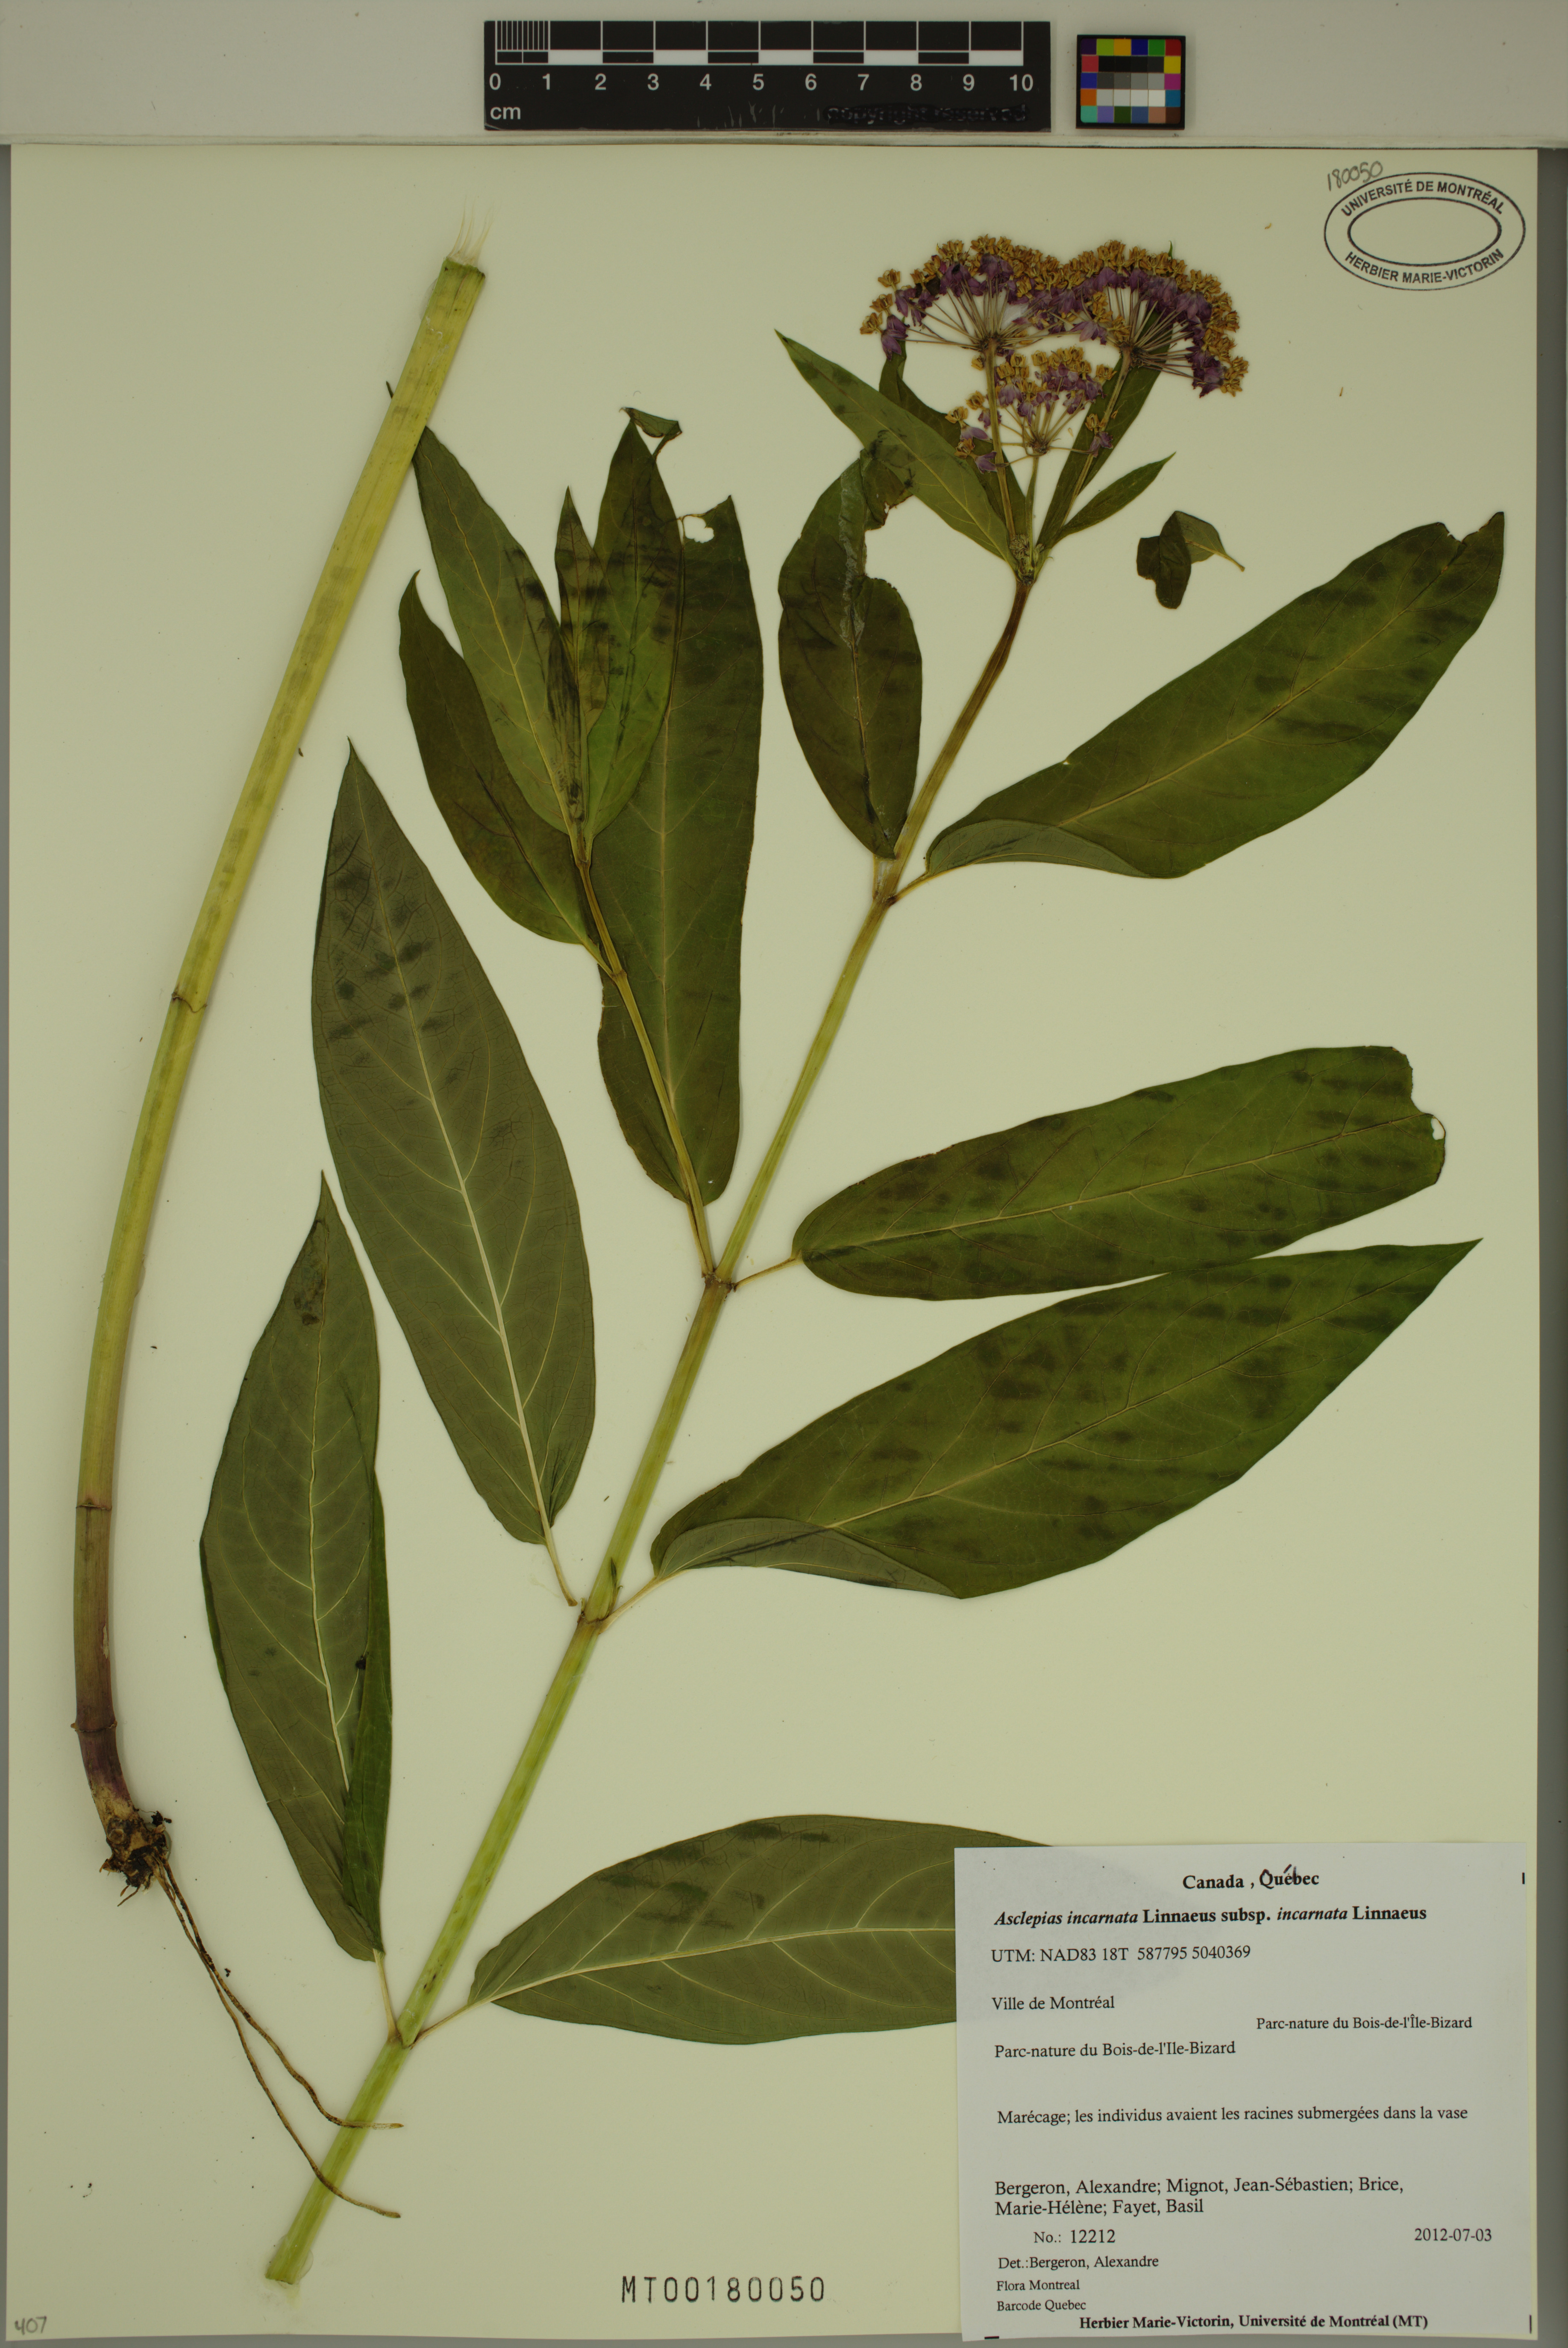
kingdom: Plantae
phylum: Tracheophyta
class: Magnoliopsida
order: Gentianales
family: Apocynaceae
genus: Asclepias
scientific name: Asclepias incarnata
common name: Swamp milkweed
